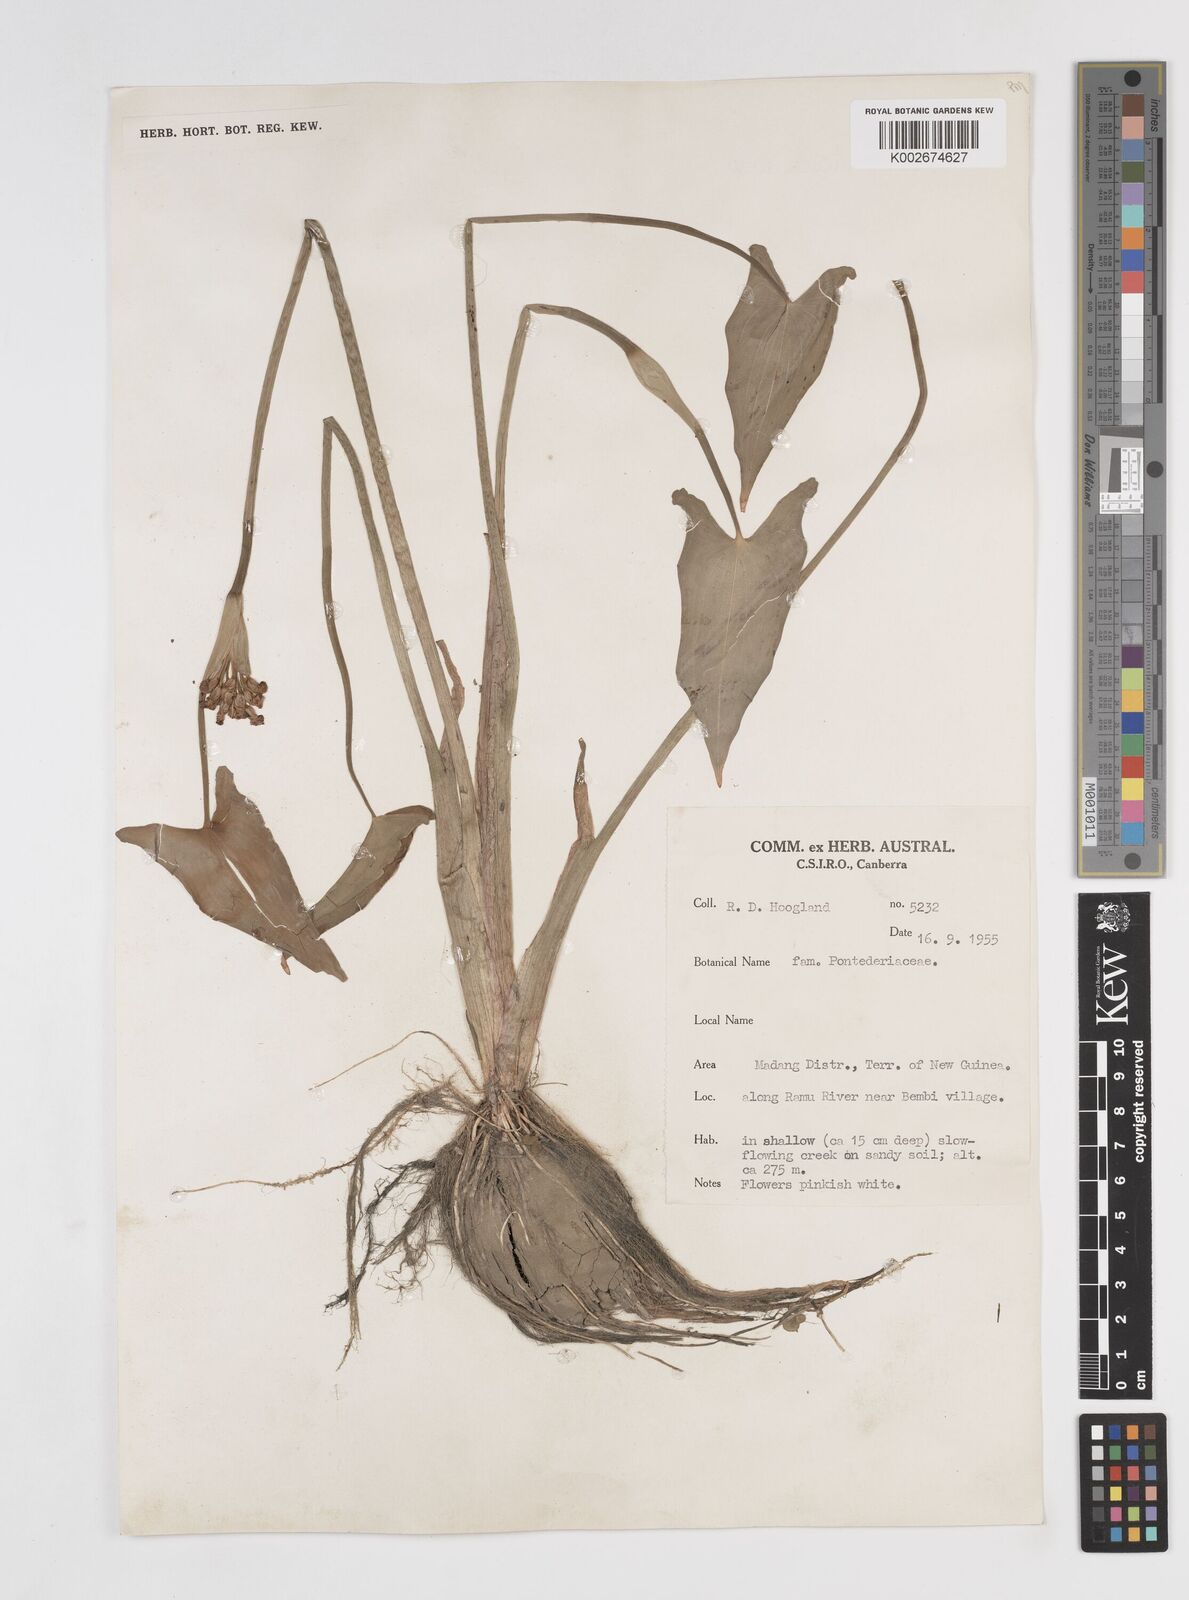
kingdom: Plantae
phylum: Tracheophyta
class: Liliopsida
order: Commelinales
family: Pontederiaceae
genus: Pontederia
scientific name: Pontederia hastata
